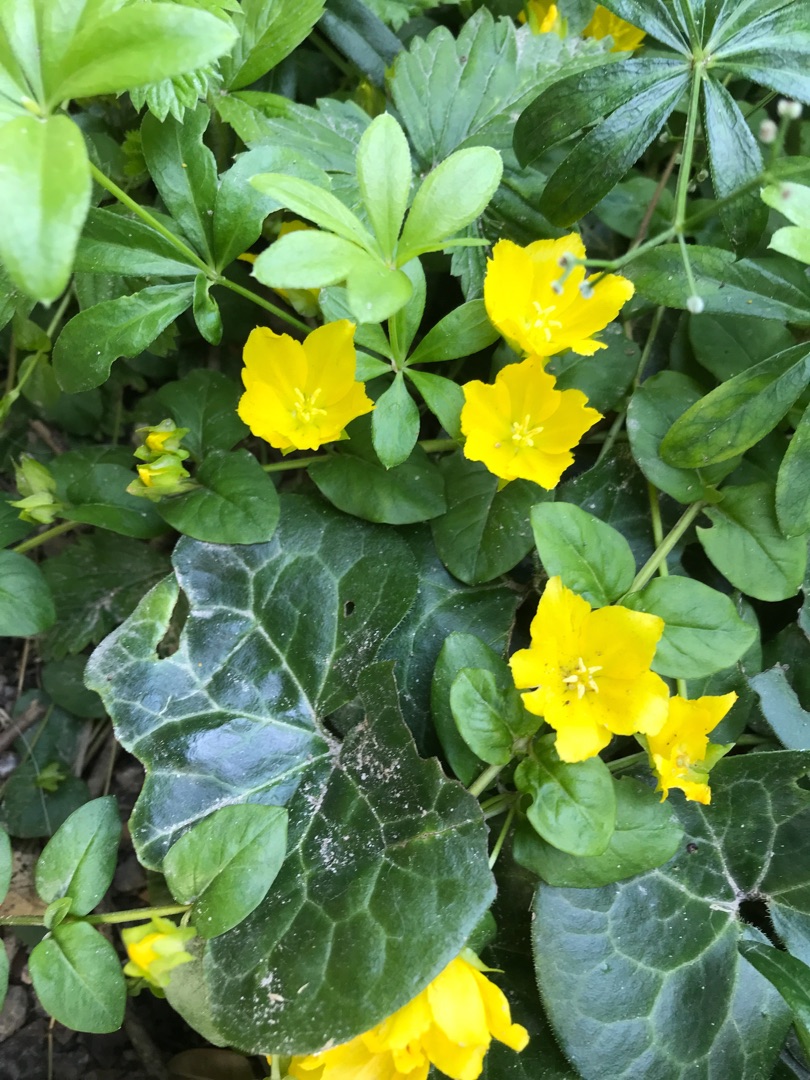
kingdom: Plantae
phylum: Tracheophyta
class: Magnoliopsida
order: Ericales
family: Primulaceae
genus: Lysimachia
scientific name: Lysimachia nummularia
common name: Pengebladet fredløs
